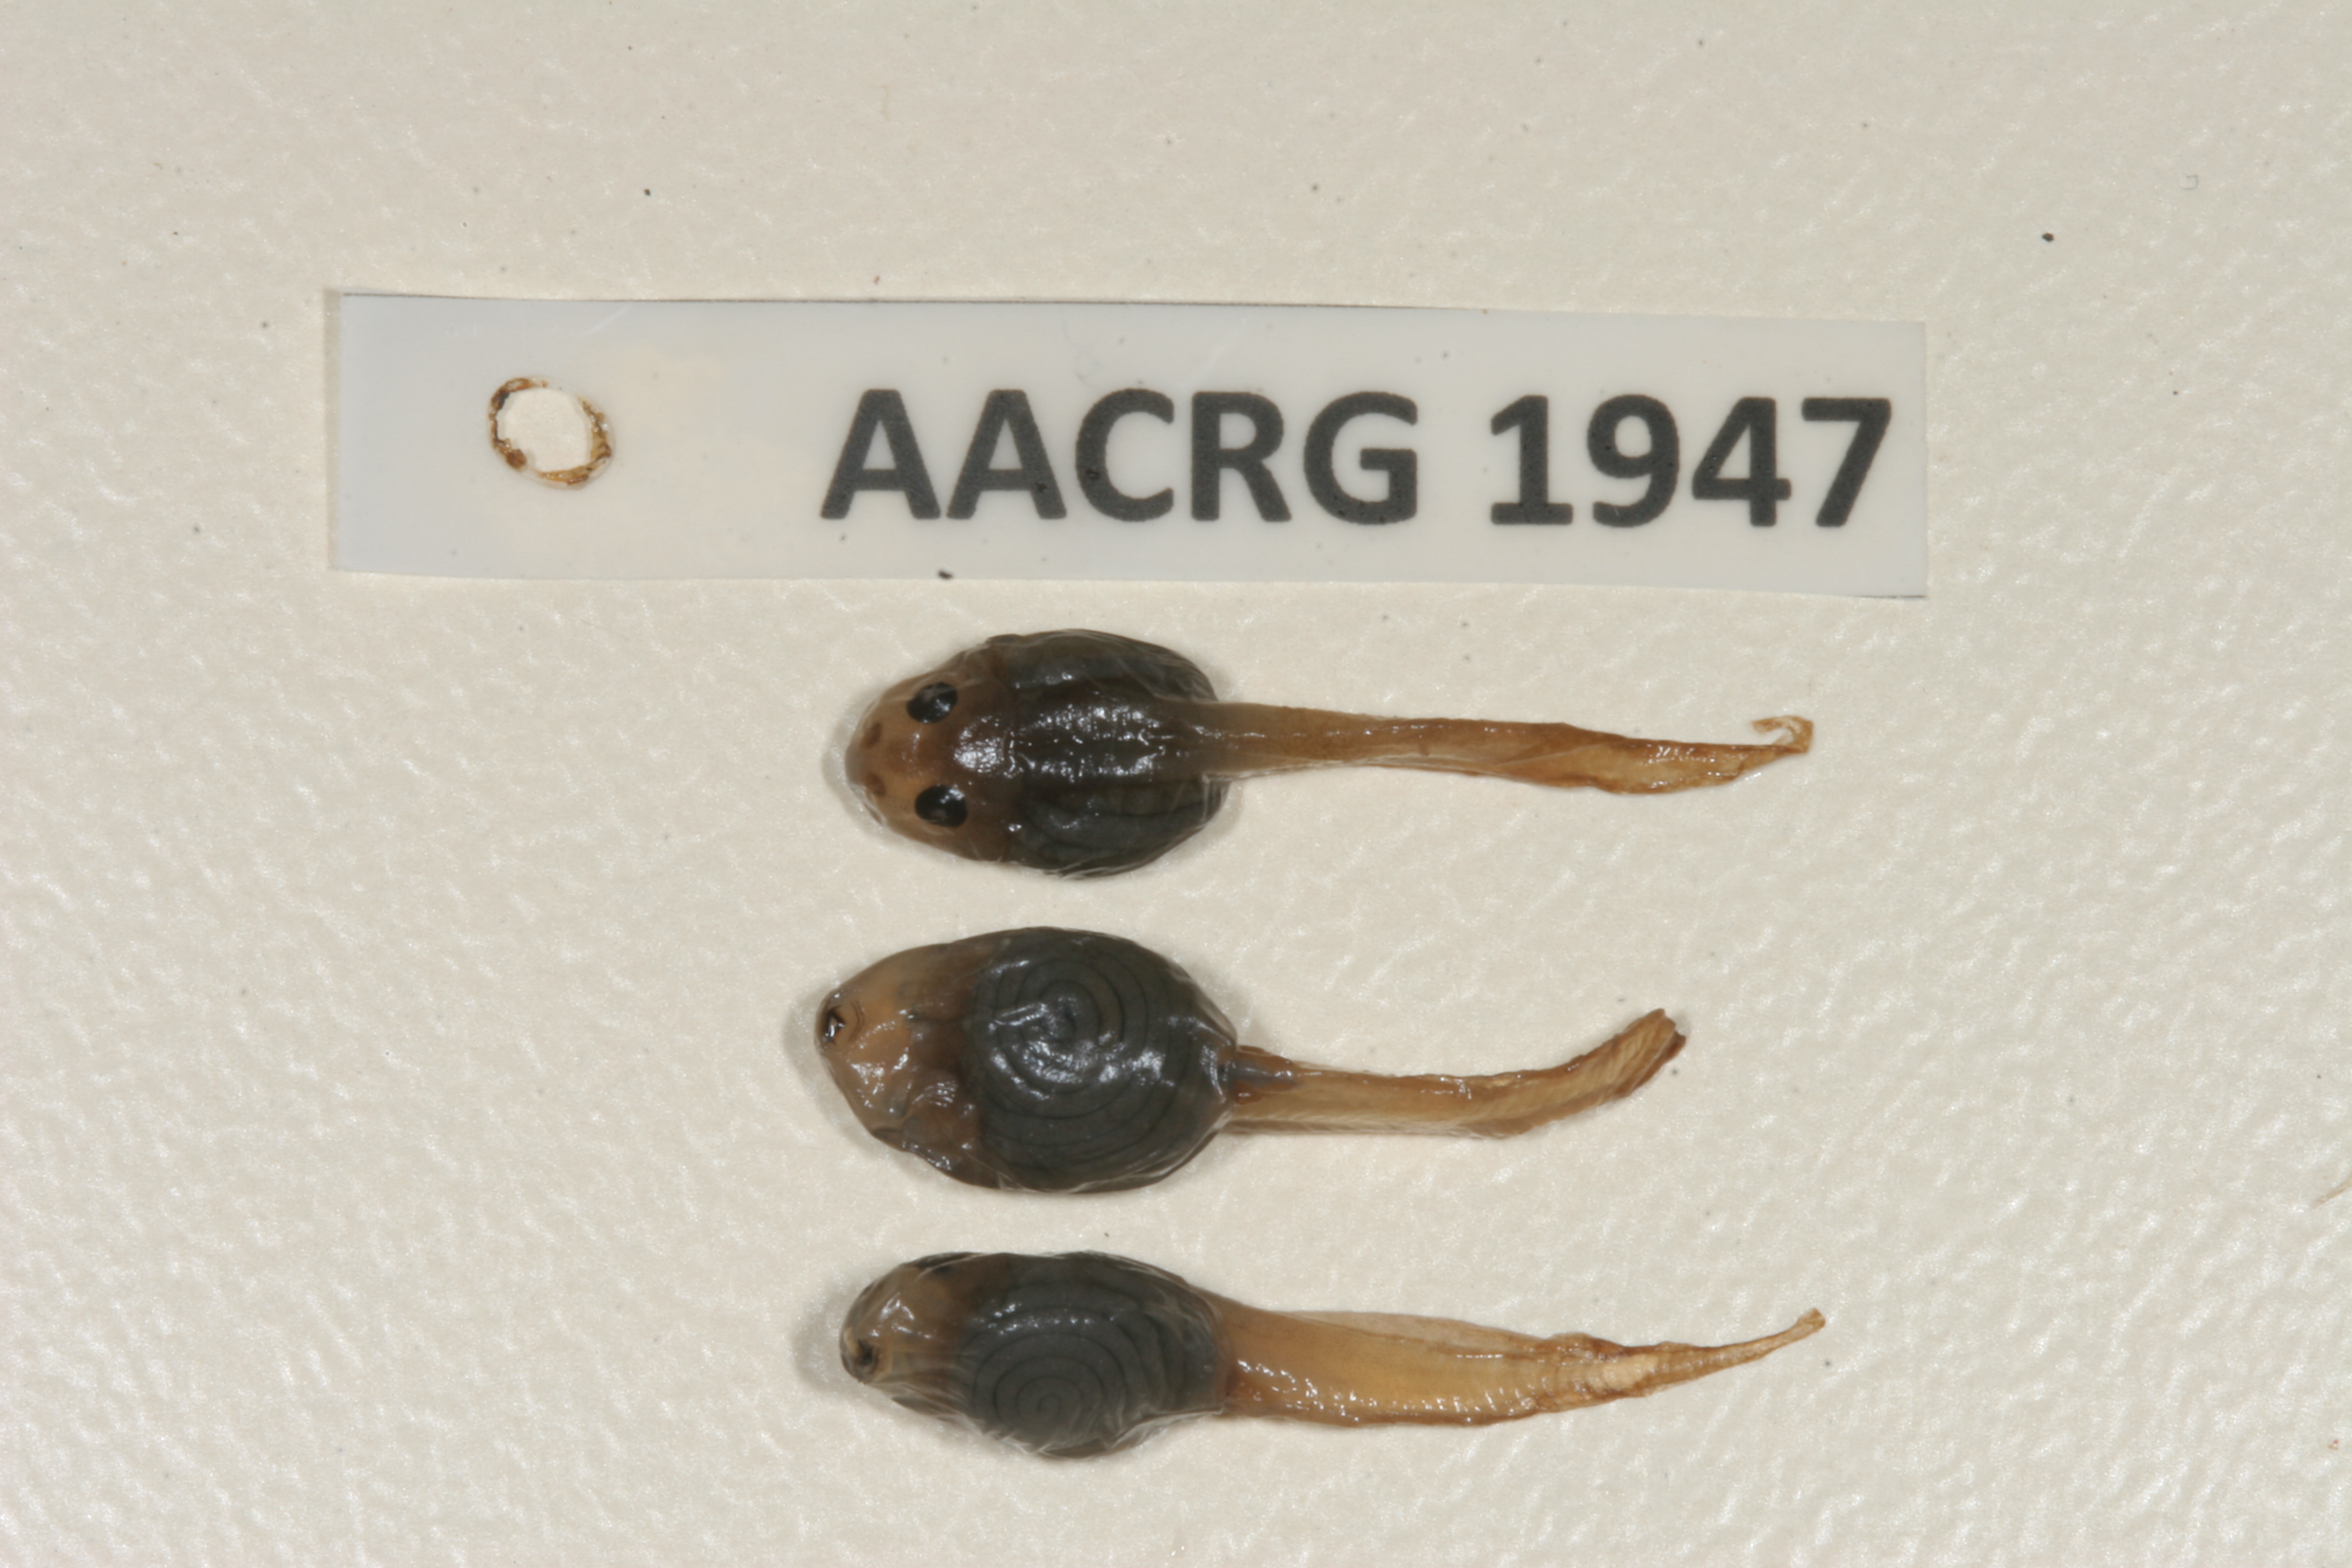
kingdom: Animalia
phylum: Chordata
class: Amphibia
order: Anura
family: Ptychadenidae
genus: Ptychadena
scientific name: Ptychadena anchietae
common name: Anchieta's ridged frog
